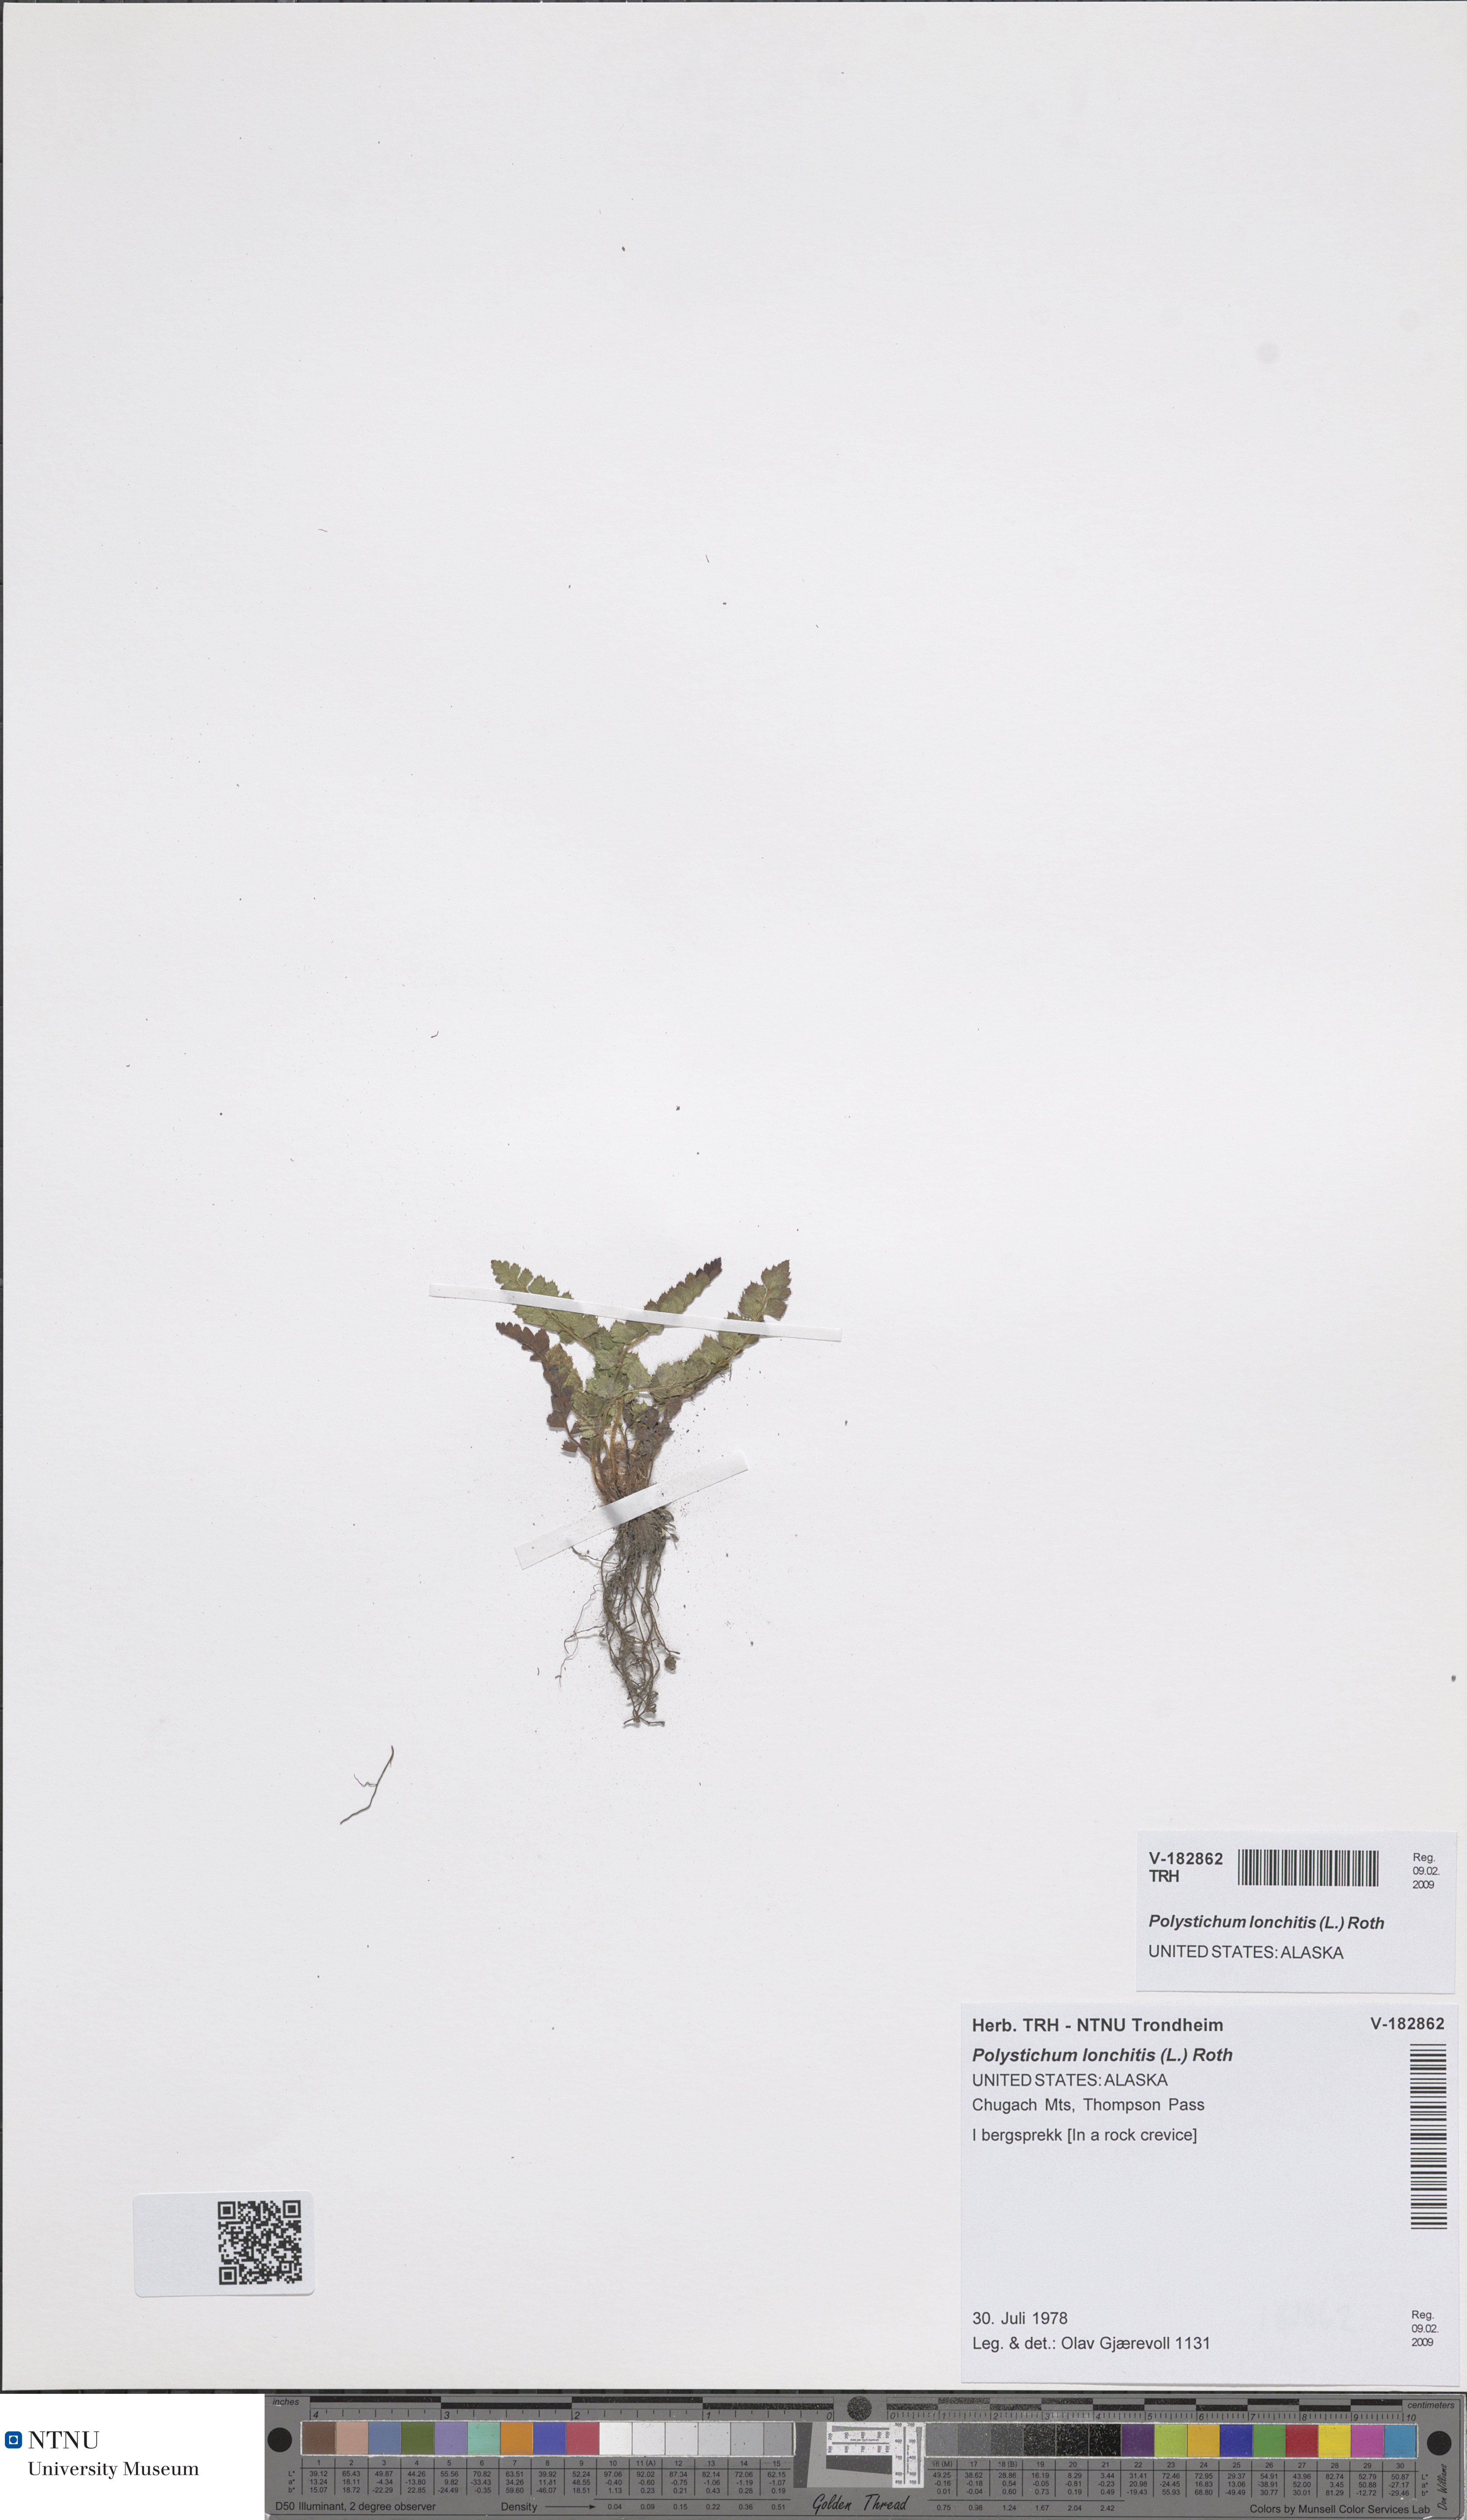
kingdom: Plantae
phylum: Tracheophyta
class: Polypodiopsida
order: Polypodiales
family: Dryopteridaceae
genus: Polystichum
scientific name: Polystichum lonchitis
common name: Holly fern
